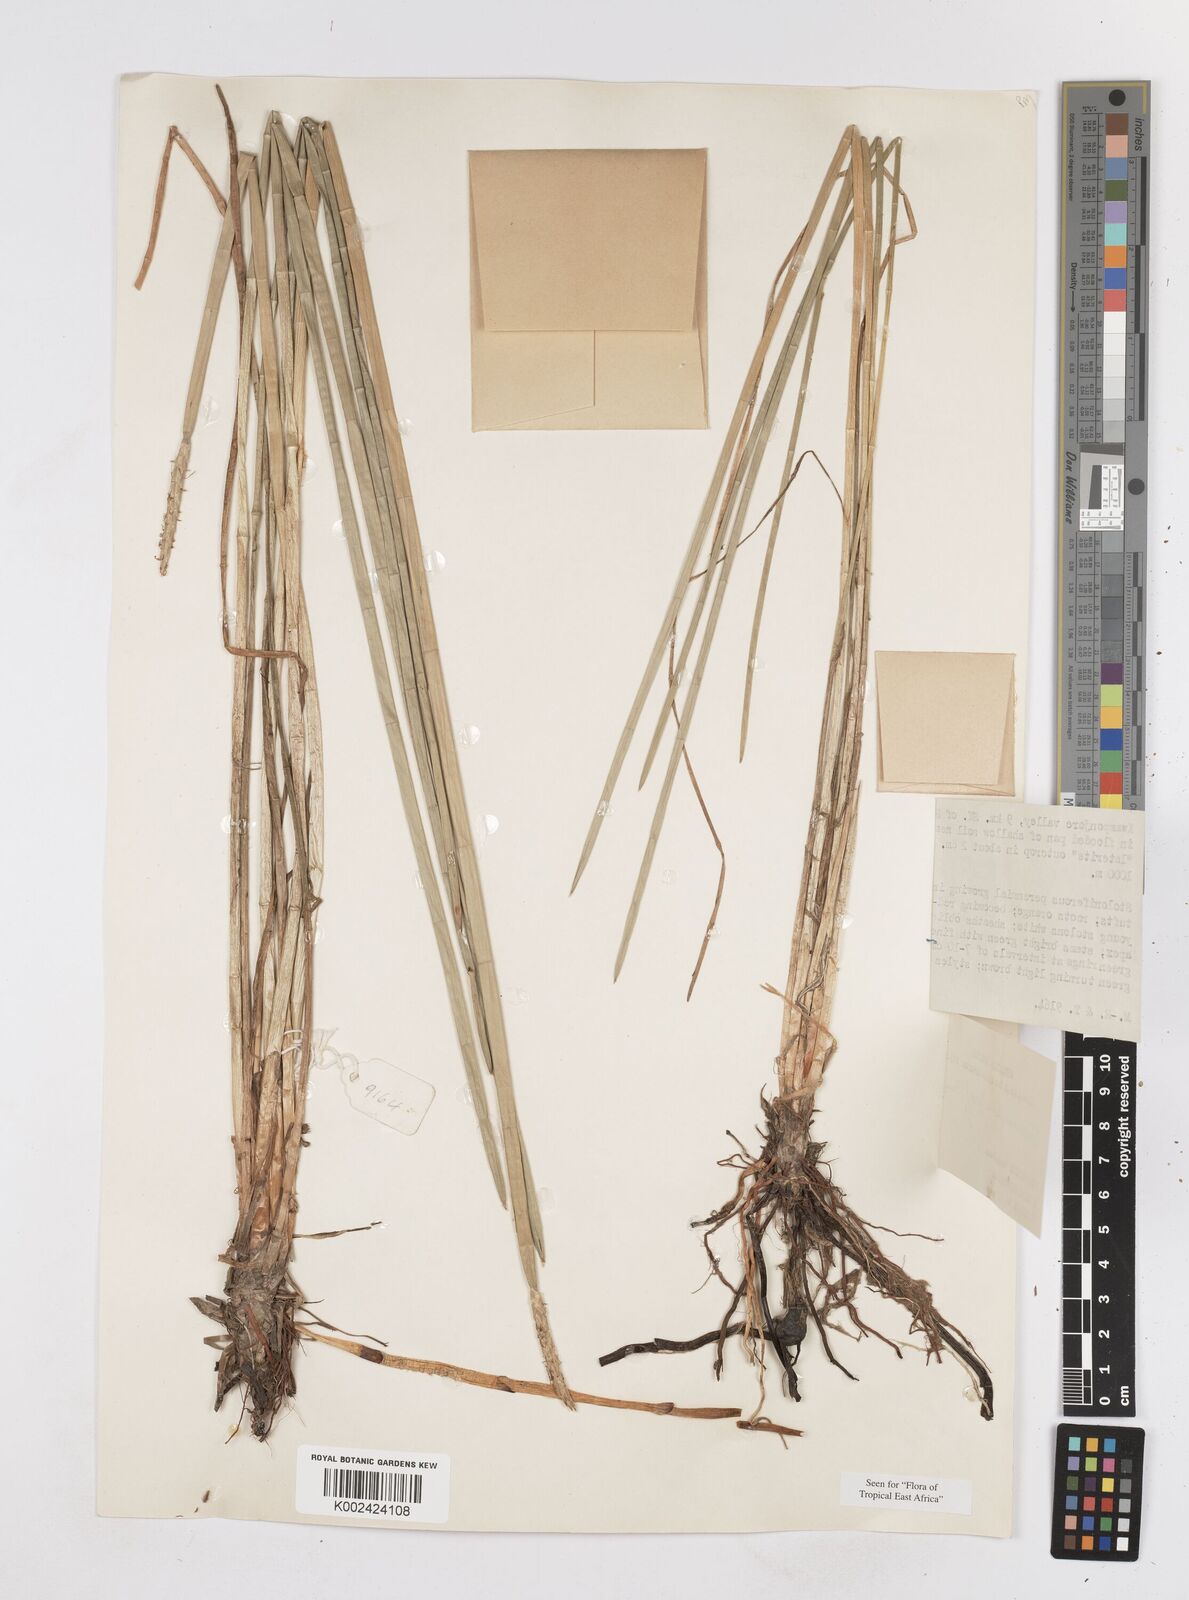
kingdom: Plantae
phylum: Tracheophyta
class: Liliopsida
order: Poales
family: Cyperaceae
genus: Eleocharis
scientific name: Eleocharis dulcis
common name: Chinese water chestnut
